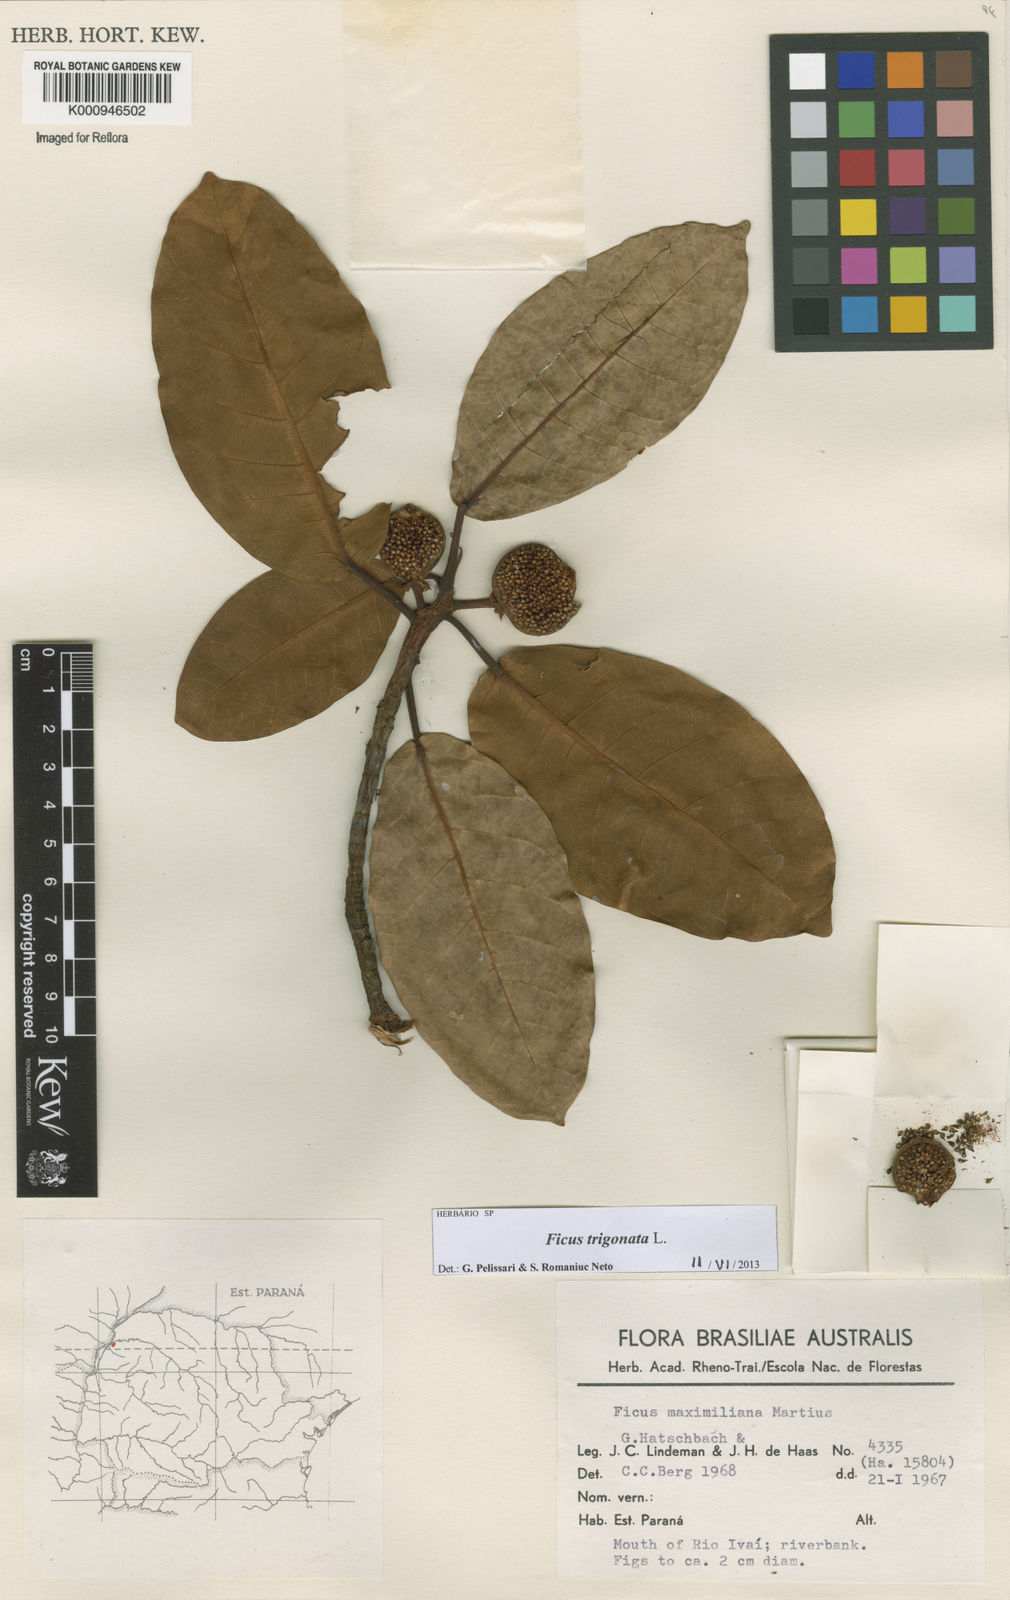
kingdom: Plantae
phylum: Tracheophyta
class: Magnoliopsida
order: Rosales
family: Moraceae
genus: Ficus
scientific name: Ficus trigonata
